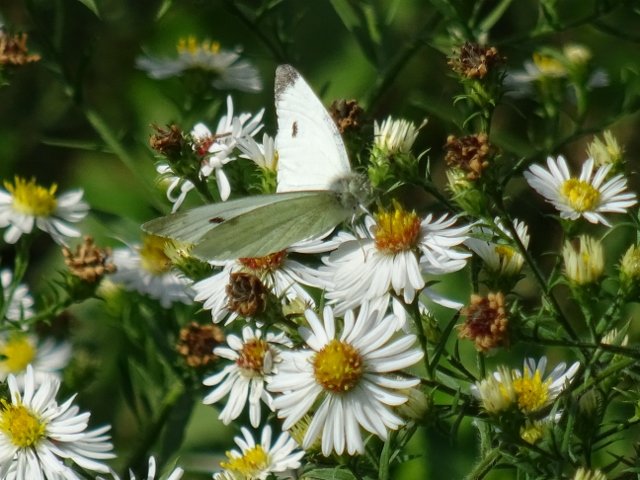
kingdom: Animalia
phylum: Arthropoda
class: Insecta
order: Lepidoptera
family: Pieridae
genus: Pieris
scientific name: Pieris rapae
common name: Cabbage White
